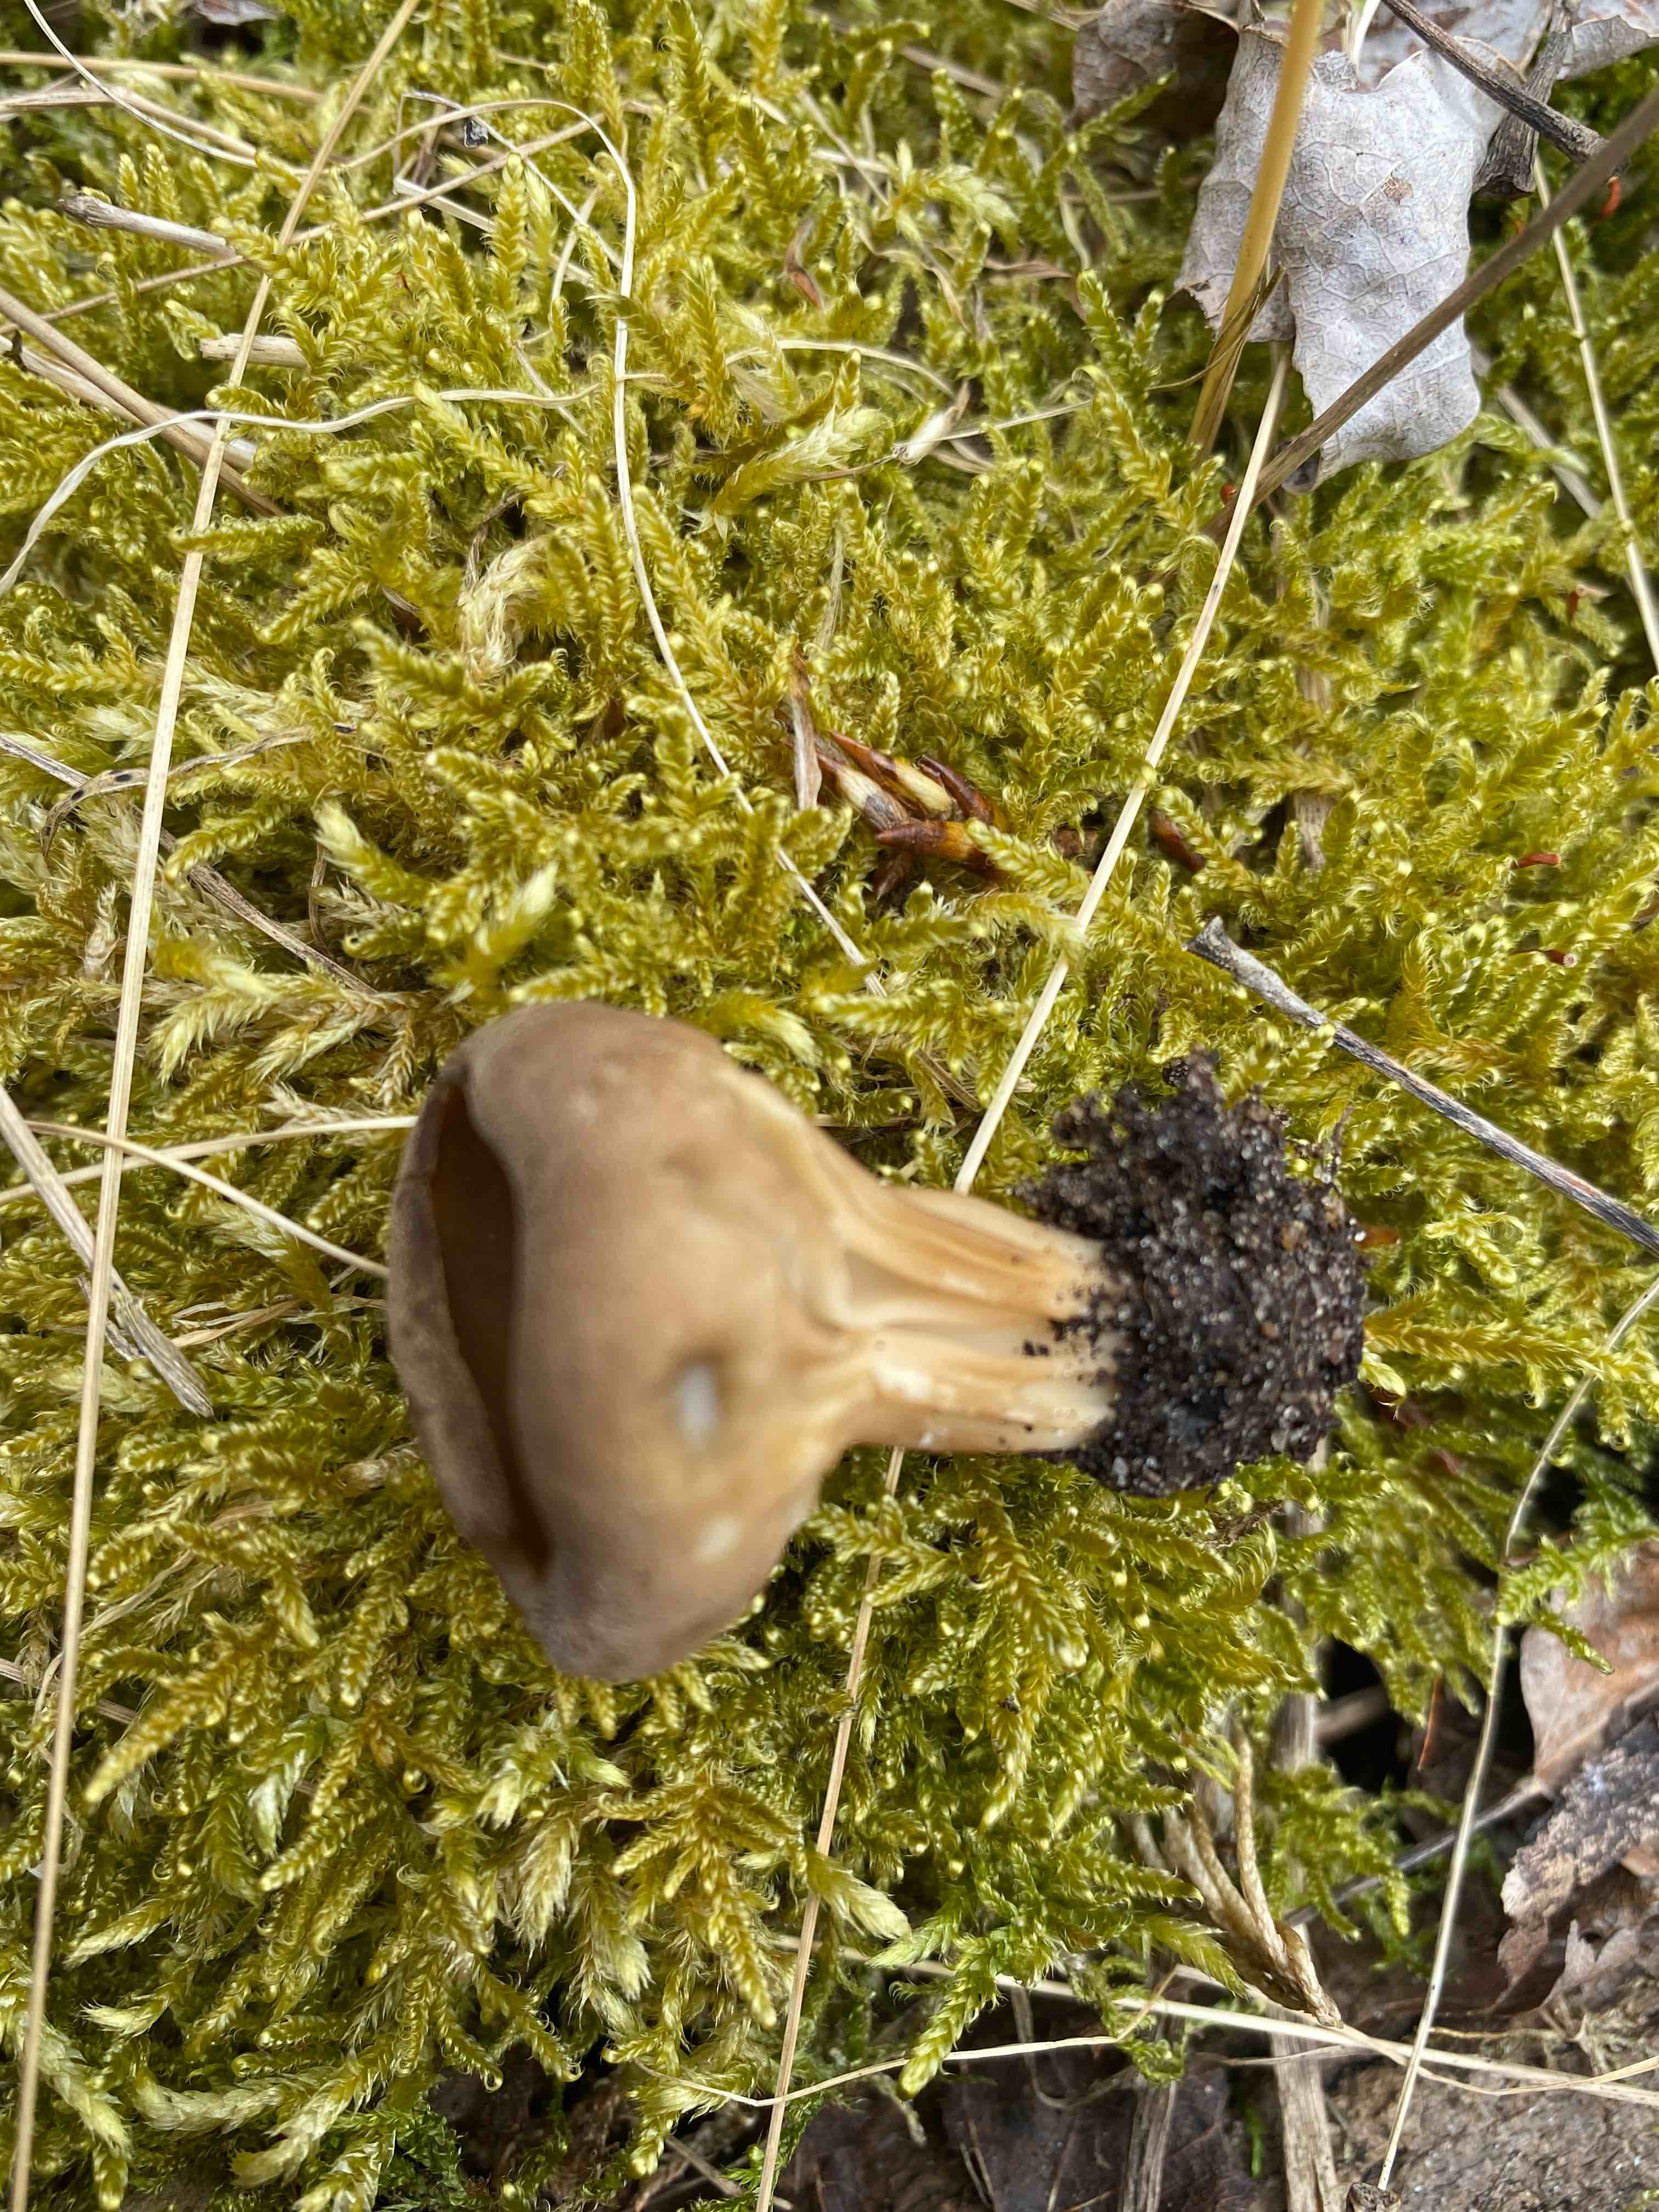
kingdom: Fungi
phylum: Ascomycota
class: Pezizomycetes
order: Pezizales
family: Helvellaceae
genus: Helvella
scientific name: Helvella acetabulum
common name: pokal-foldhat
